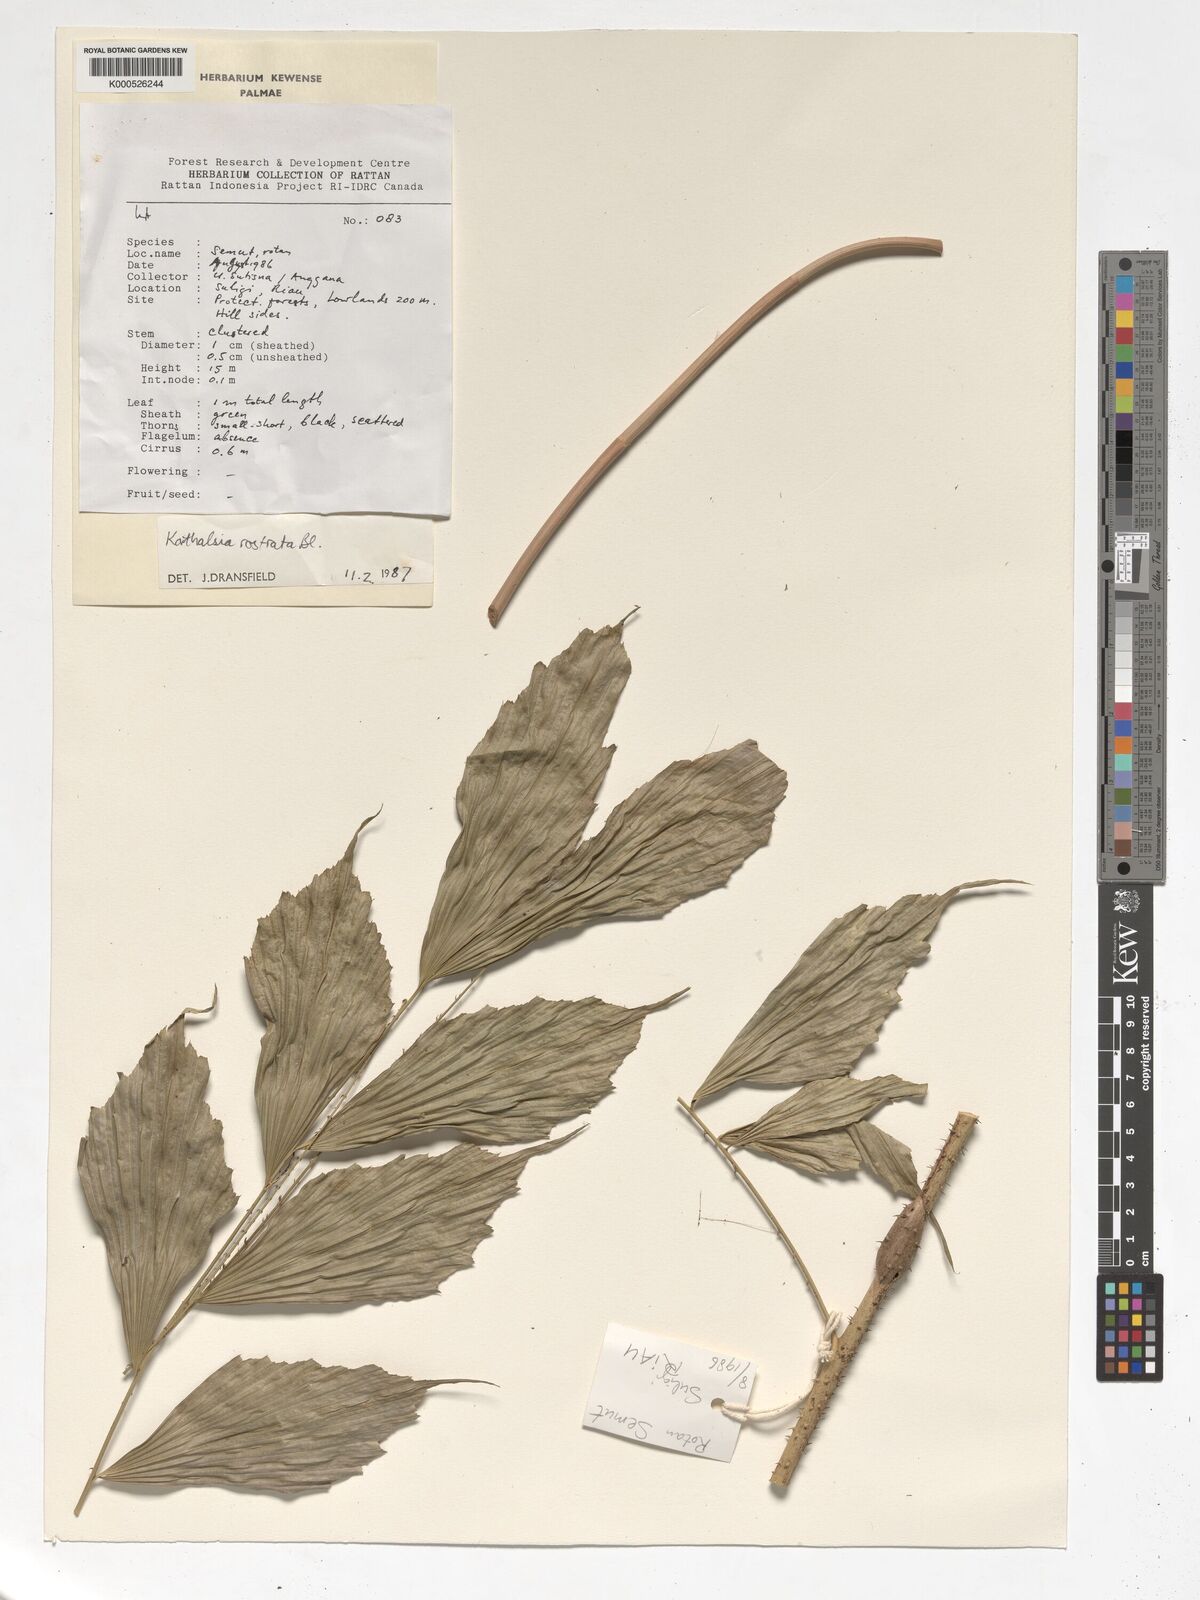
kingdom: Plantae
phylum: Tracheophyta
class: Liliopsida
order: Arecales
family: Arecaceae
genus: Korthalsia
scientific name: Korthalsia rostrata
